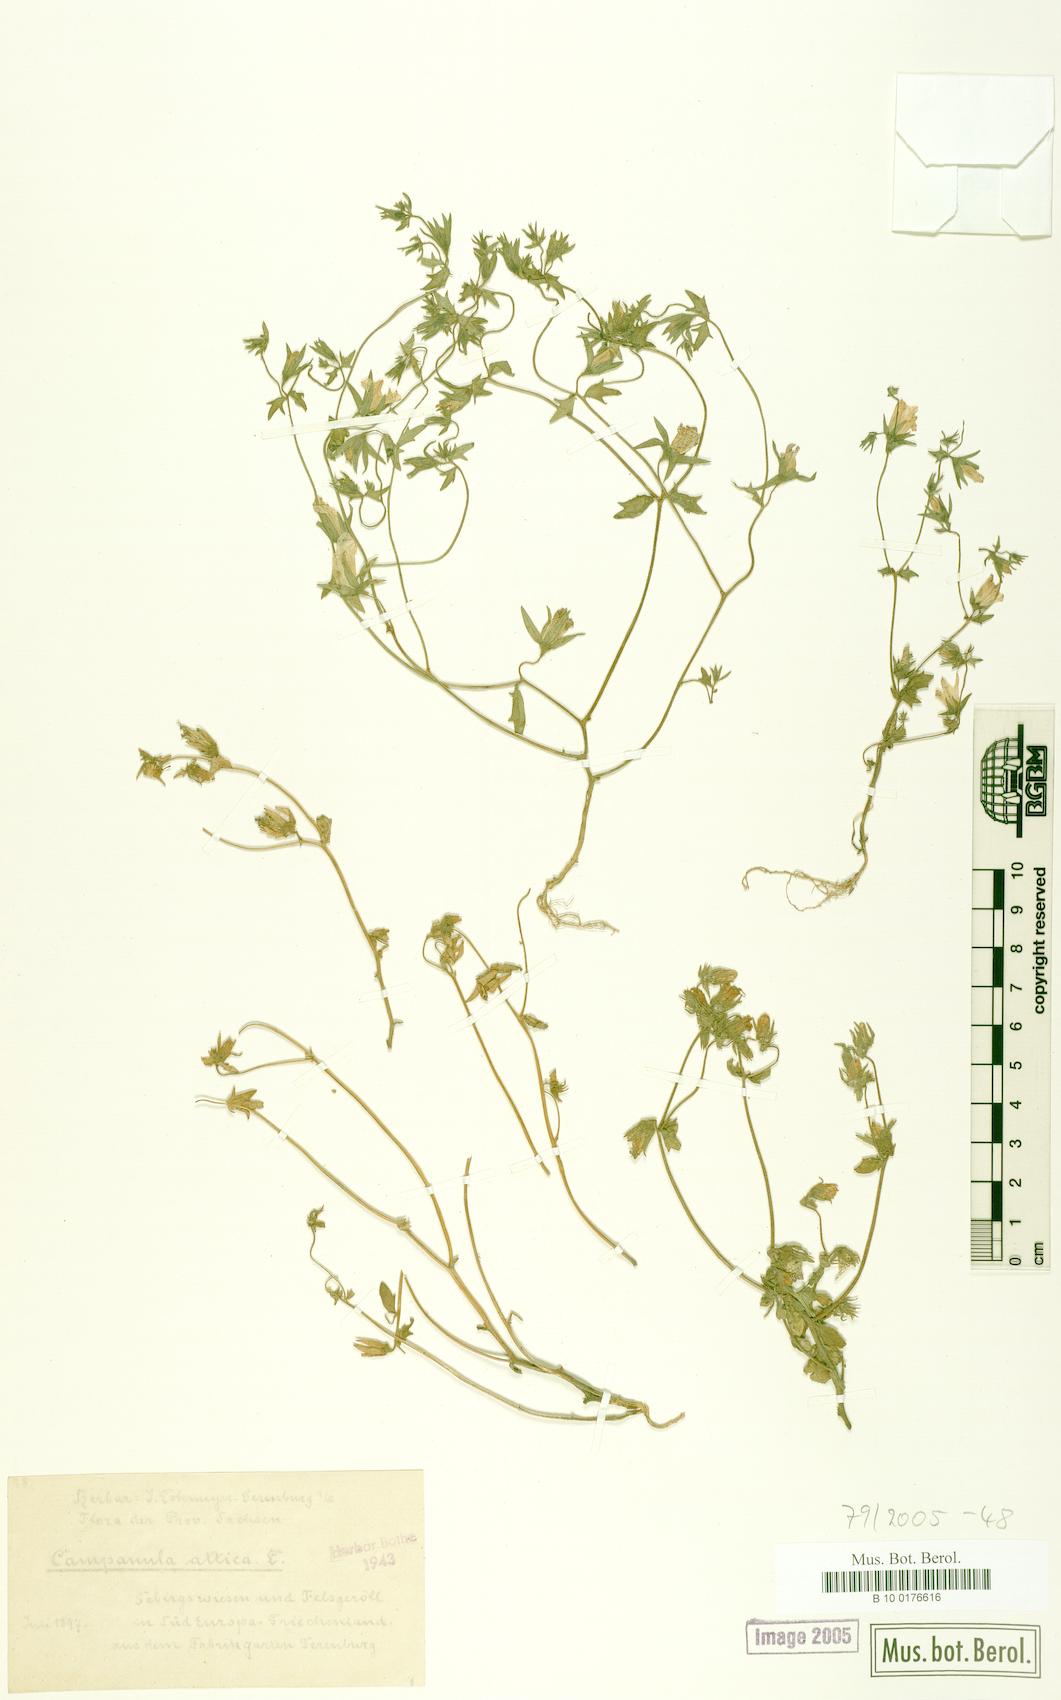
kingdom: Plantae
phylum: Tracheophyta
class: Magnoliopsida
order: Asterales
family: Campanulaceae
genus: Campanula
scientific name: Campanula drabifolia
